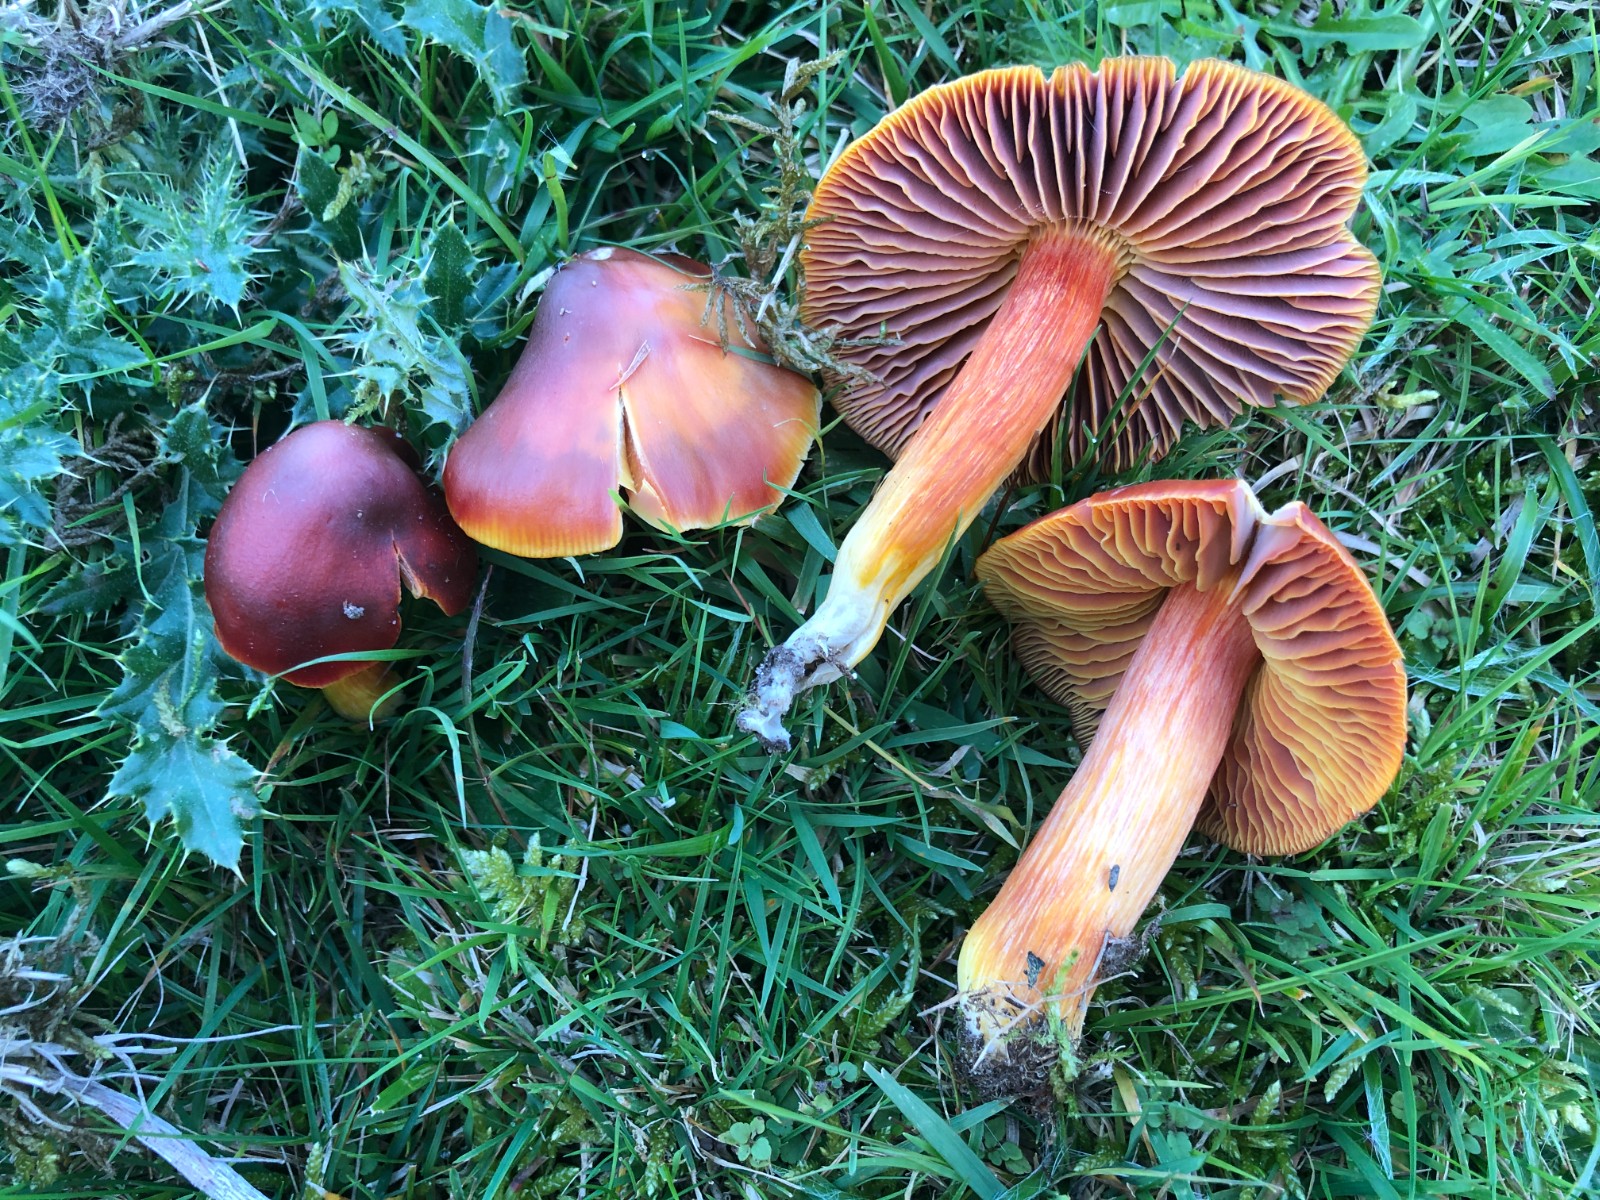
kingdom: Fungi
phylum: Basidiomycota
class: Agaricomycetes
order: Agaricales
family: Hygrophoraceae
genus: Hygrocybe
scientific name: Hygrocybe punicea
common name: skarlagen-vokshat
